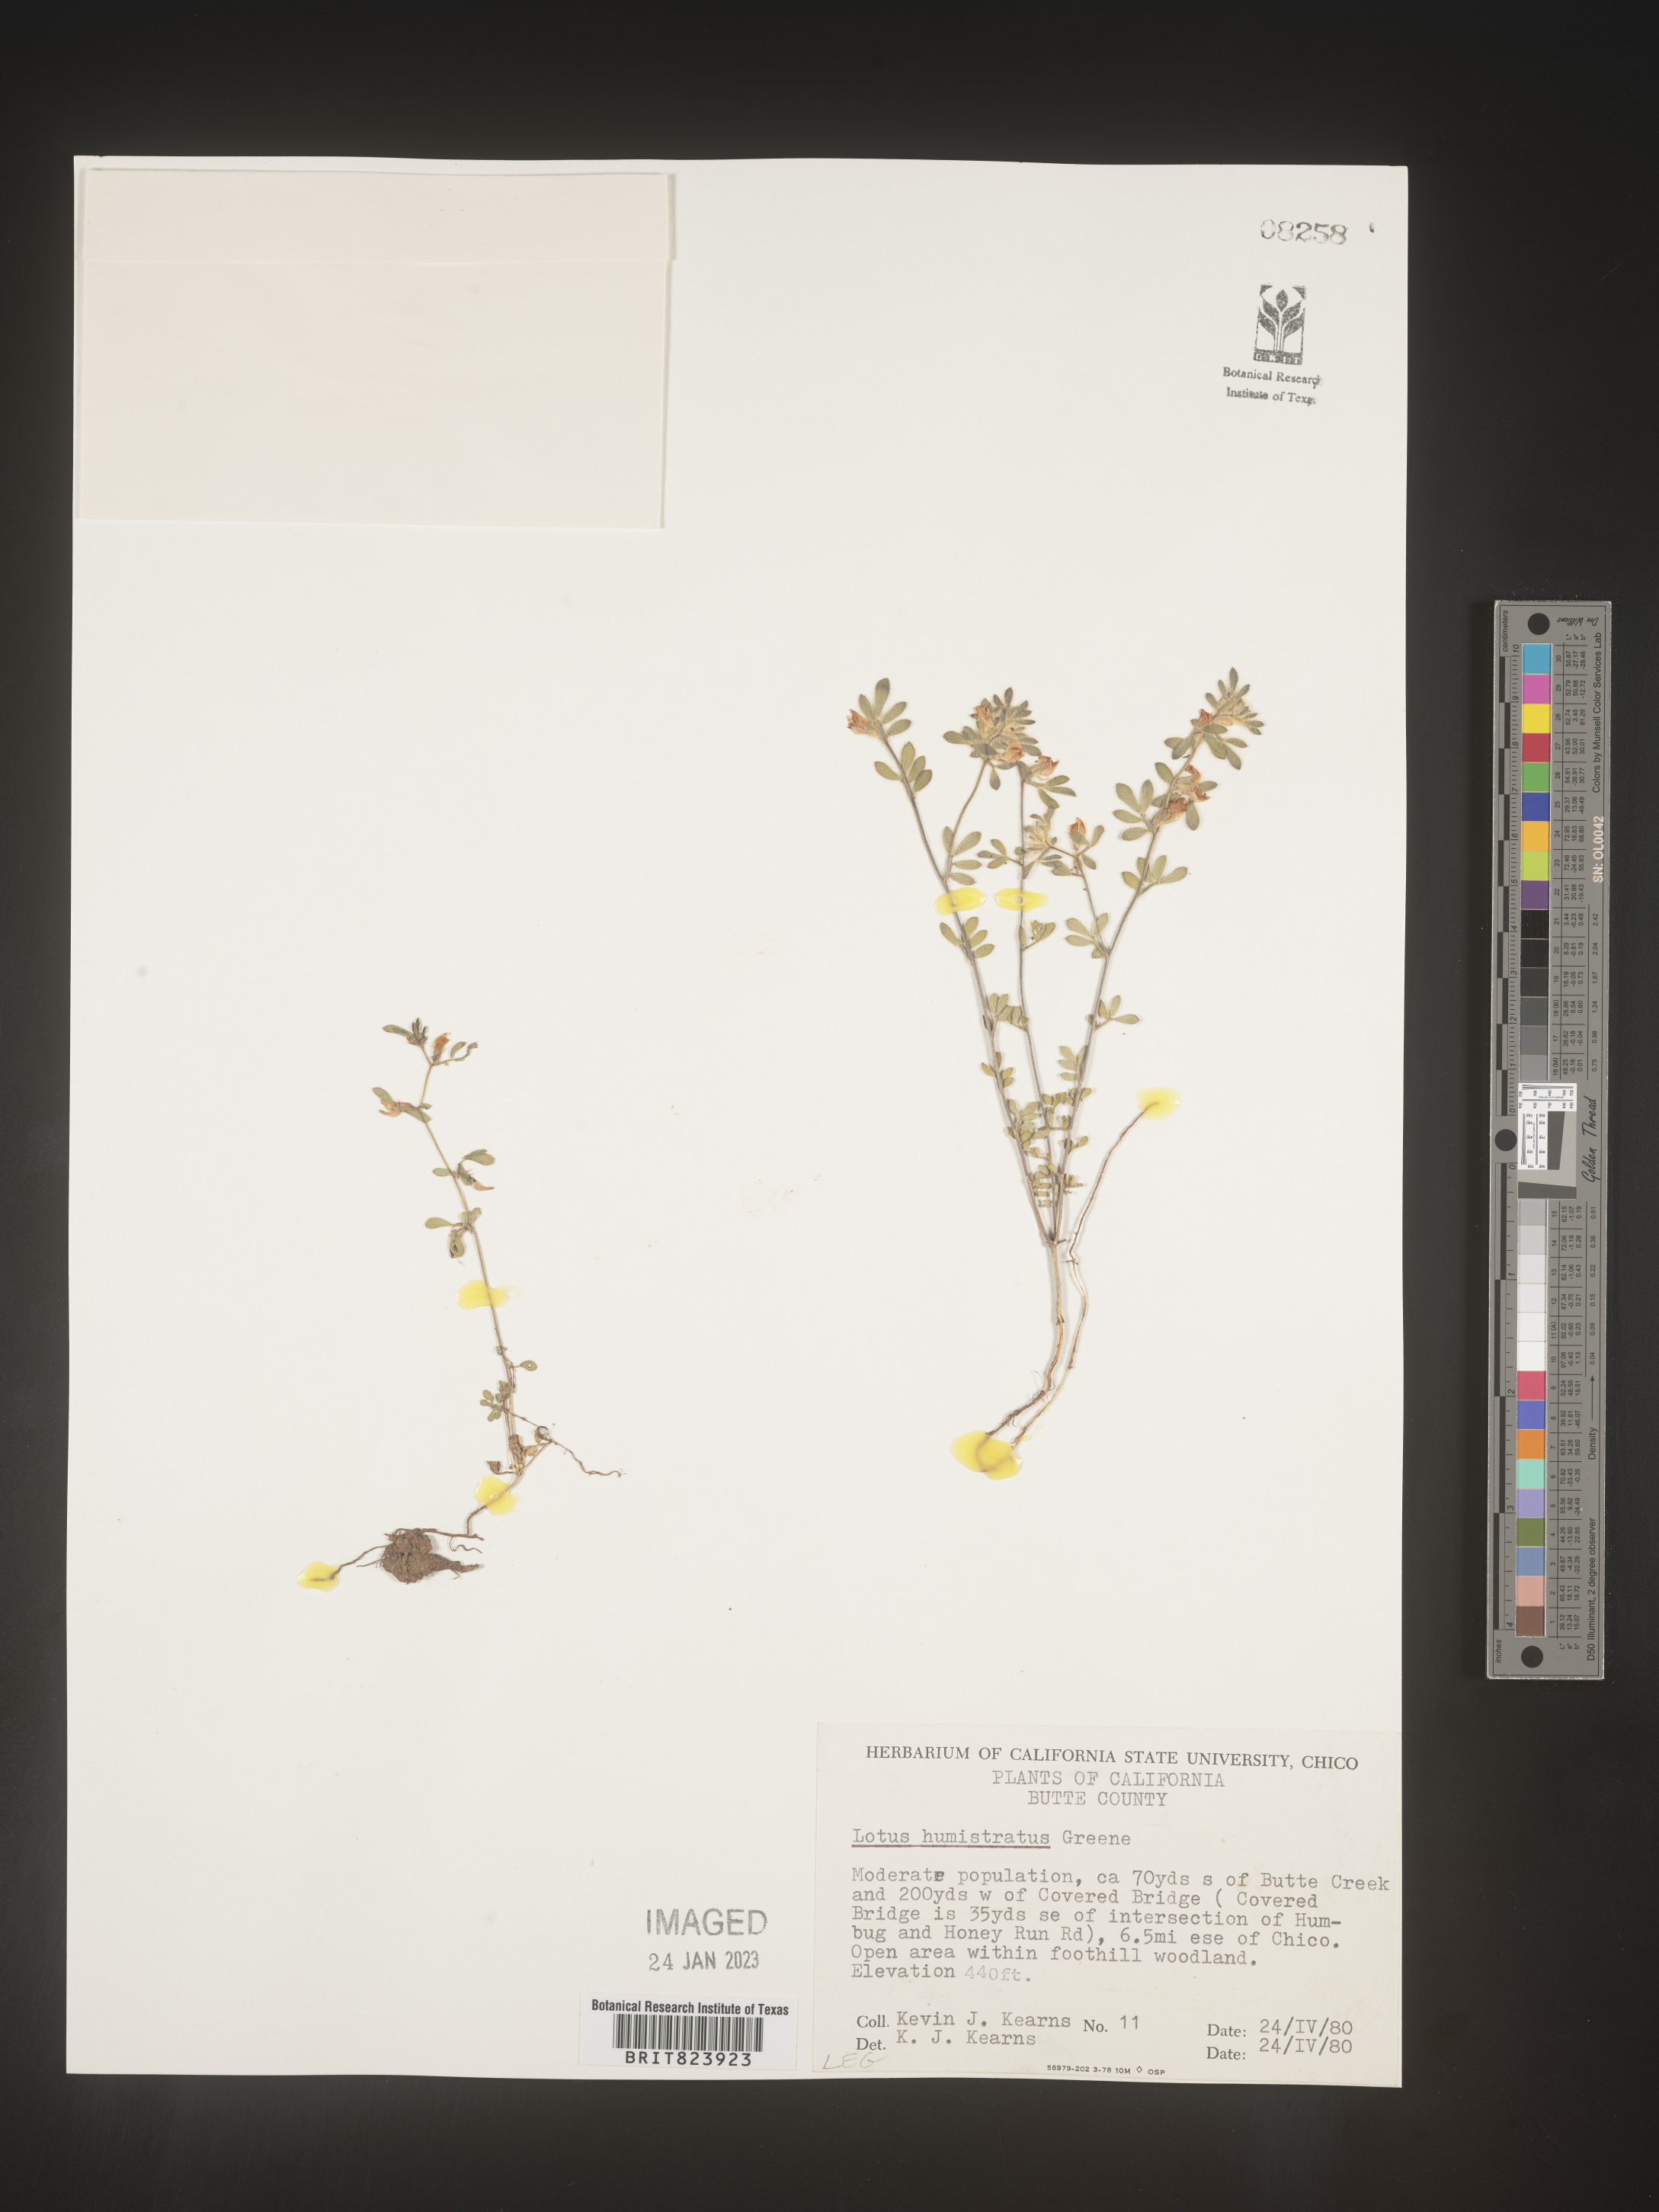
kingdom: Plantae
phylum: Tracheophyta
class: Magnoliopsida
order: Fabales
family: Fabaceae
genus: Acmispon
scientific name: Acmispon brachycarpus
